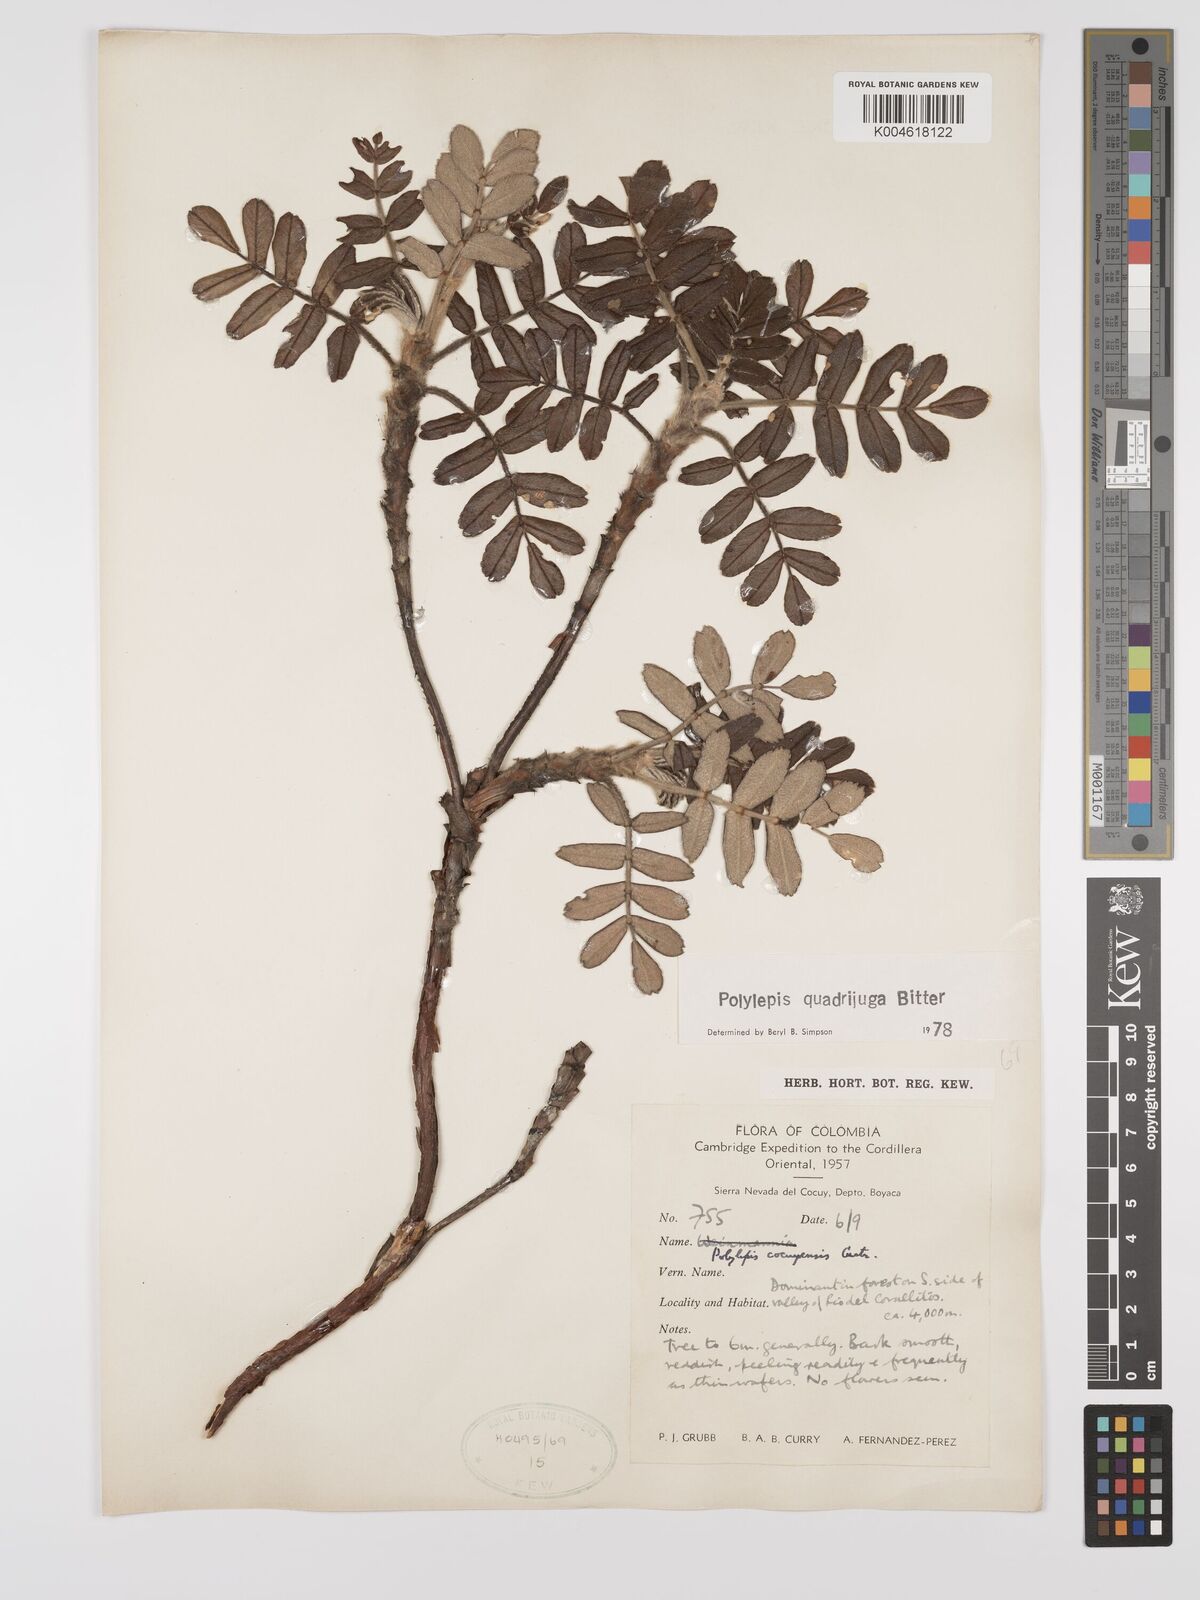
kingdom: Plantae
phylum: Tracheophyta
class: Magnoliopsida
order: Rosales
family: Rosaceae
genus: Polylepis
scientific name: Polylepis quadrijuga
